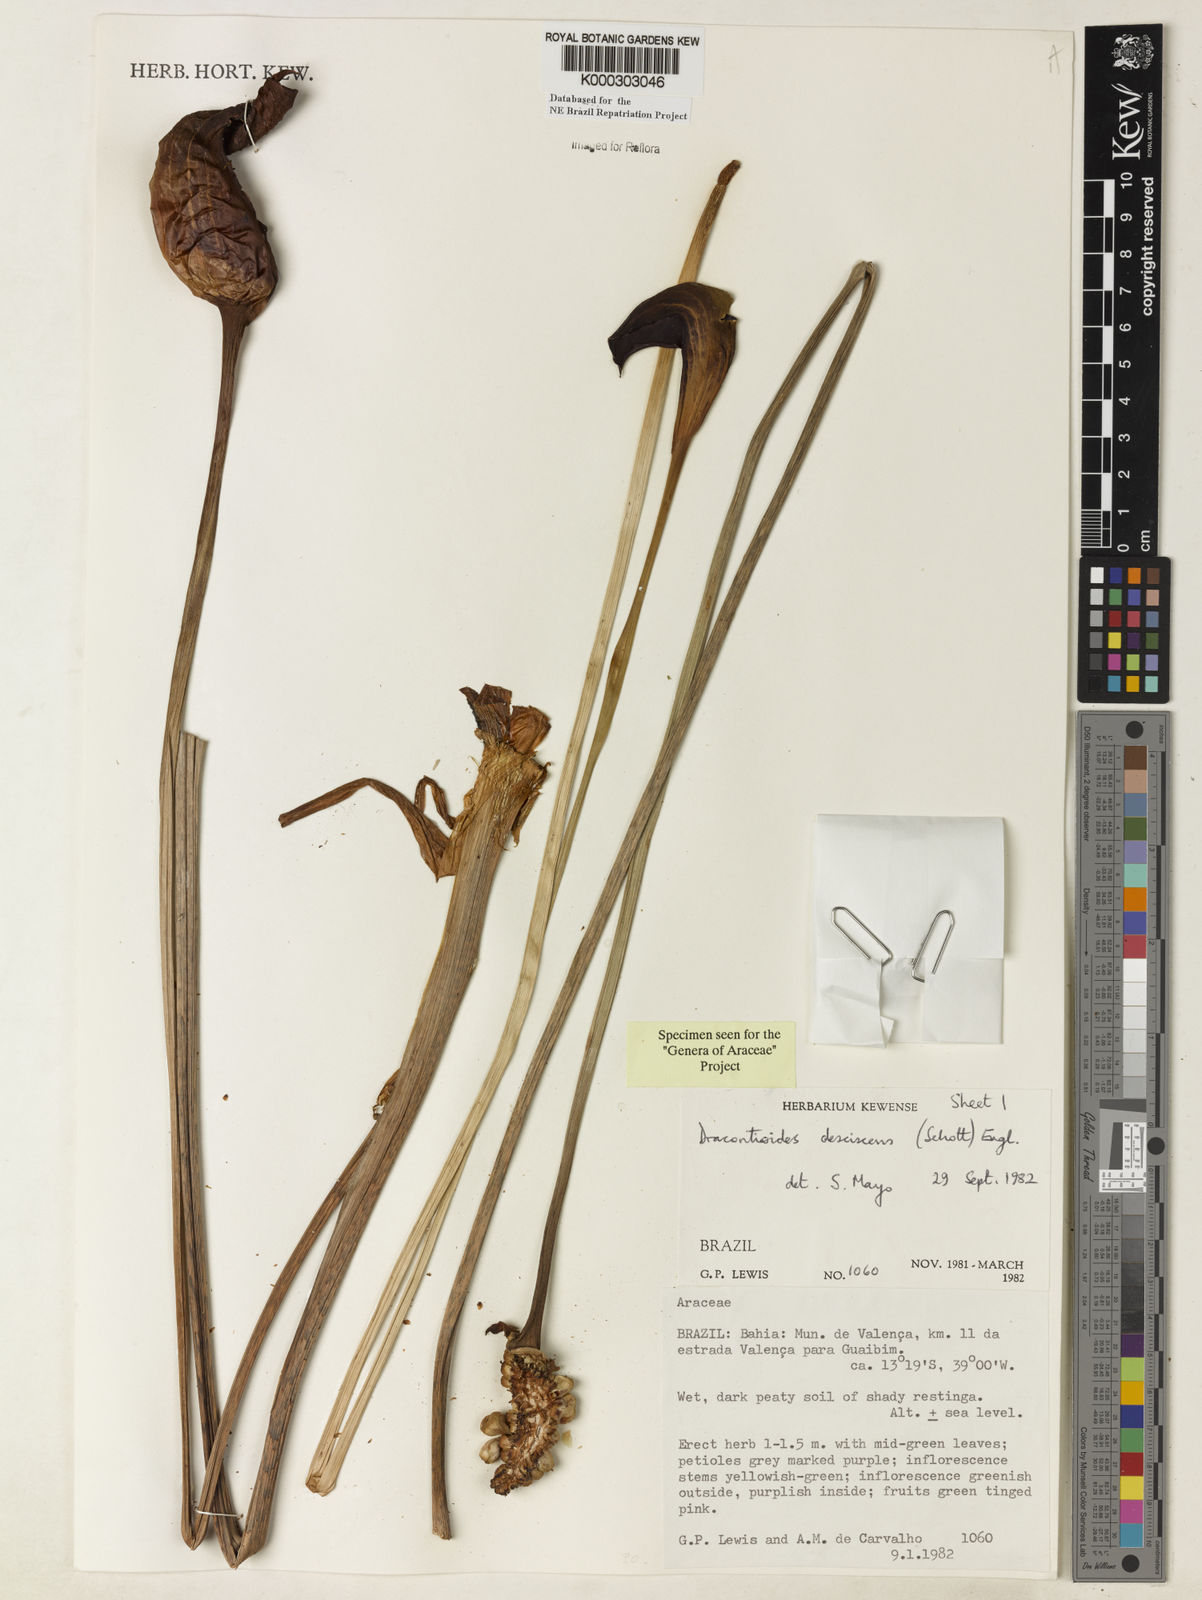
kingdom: Plantae
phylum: Tracheophyta
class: Liliopsida
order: Alismatales
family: Araceae
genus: Dracontioides
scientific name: Dracontioides desciscens
